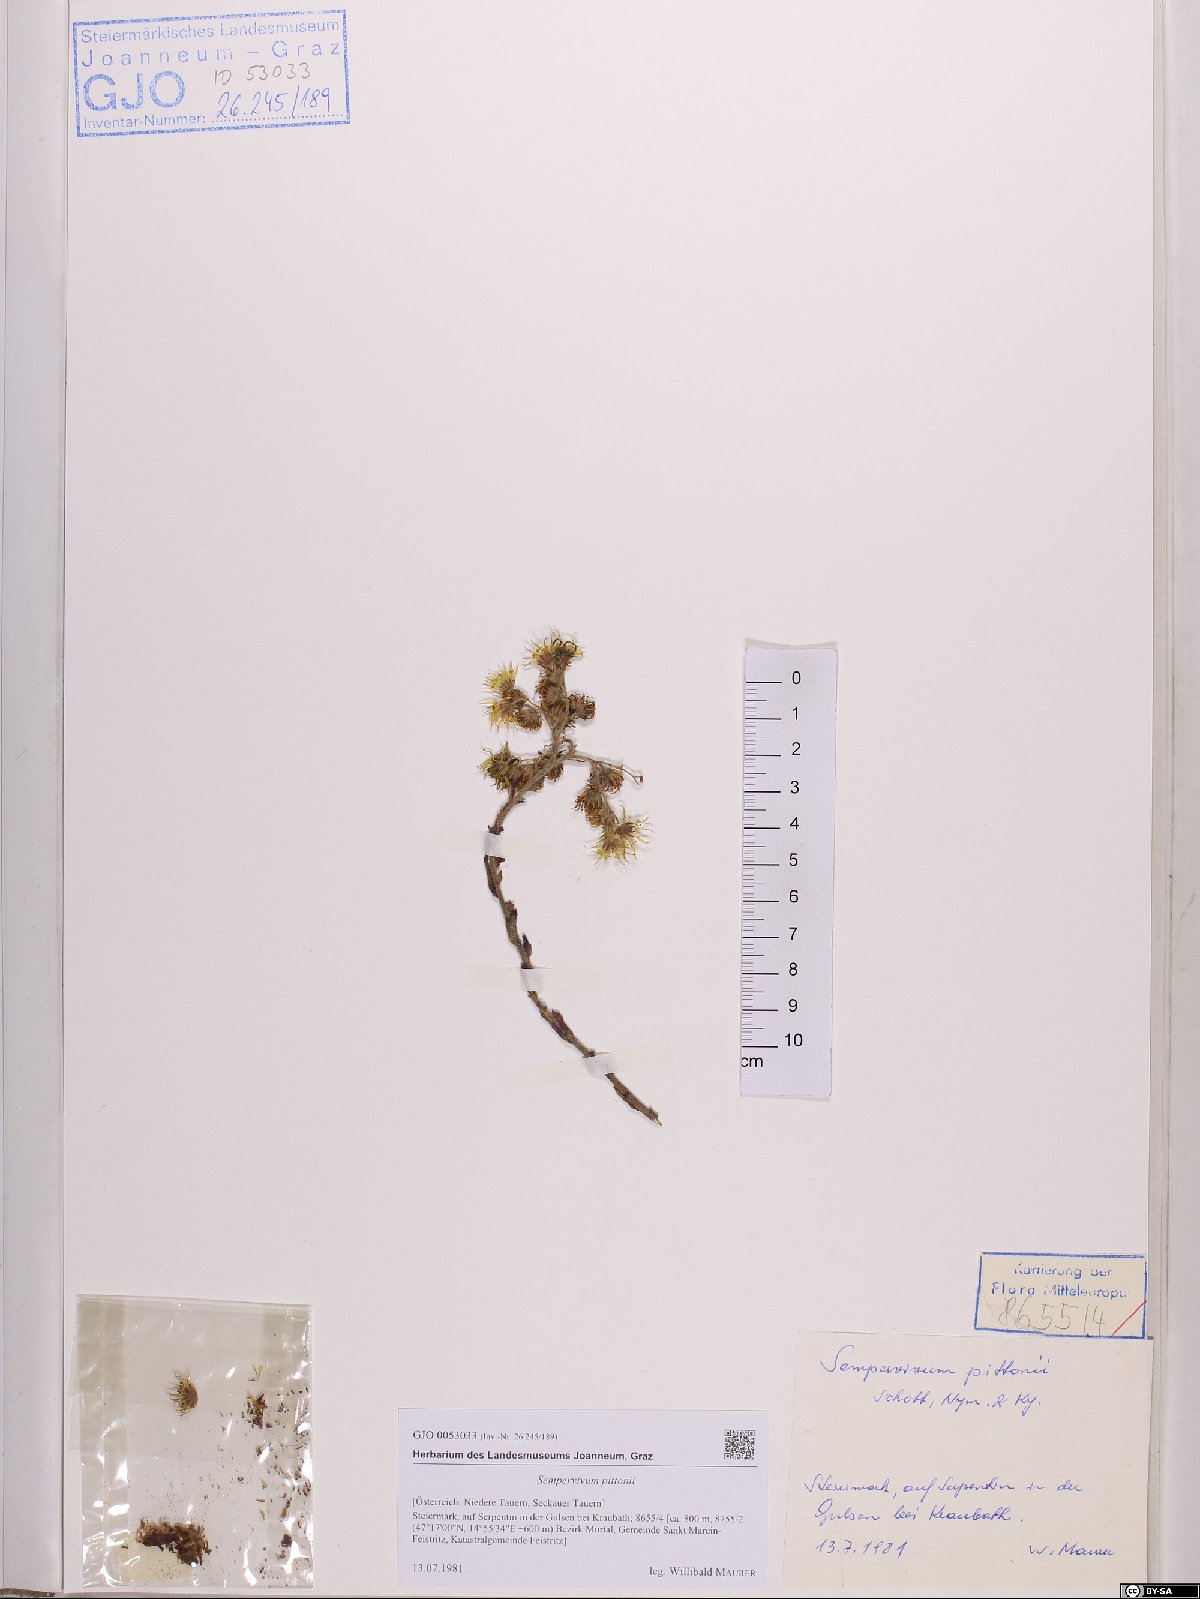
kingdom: Plantae
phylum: Tracheophyta
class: Magnoliopsida
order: Saxifragales
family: Crassulaceae
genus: Sempervivum
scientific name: Sempervivum pittonii
